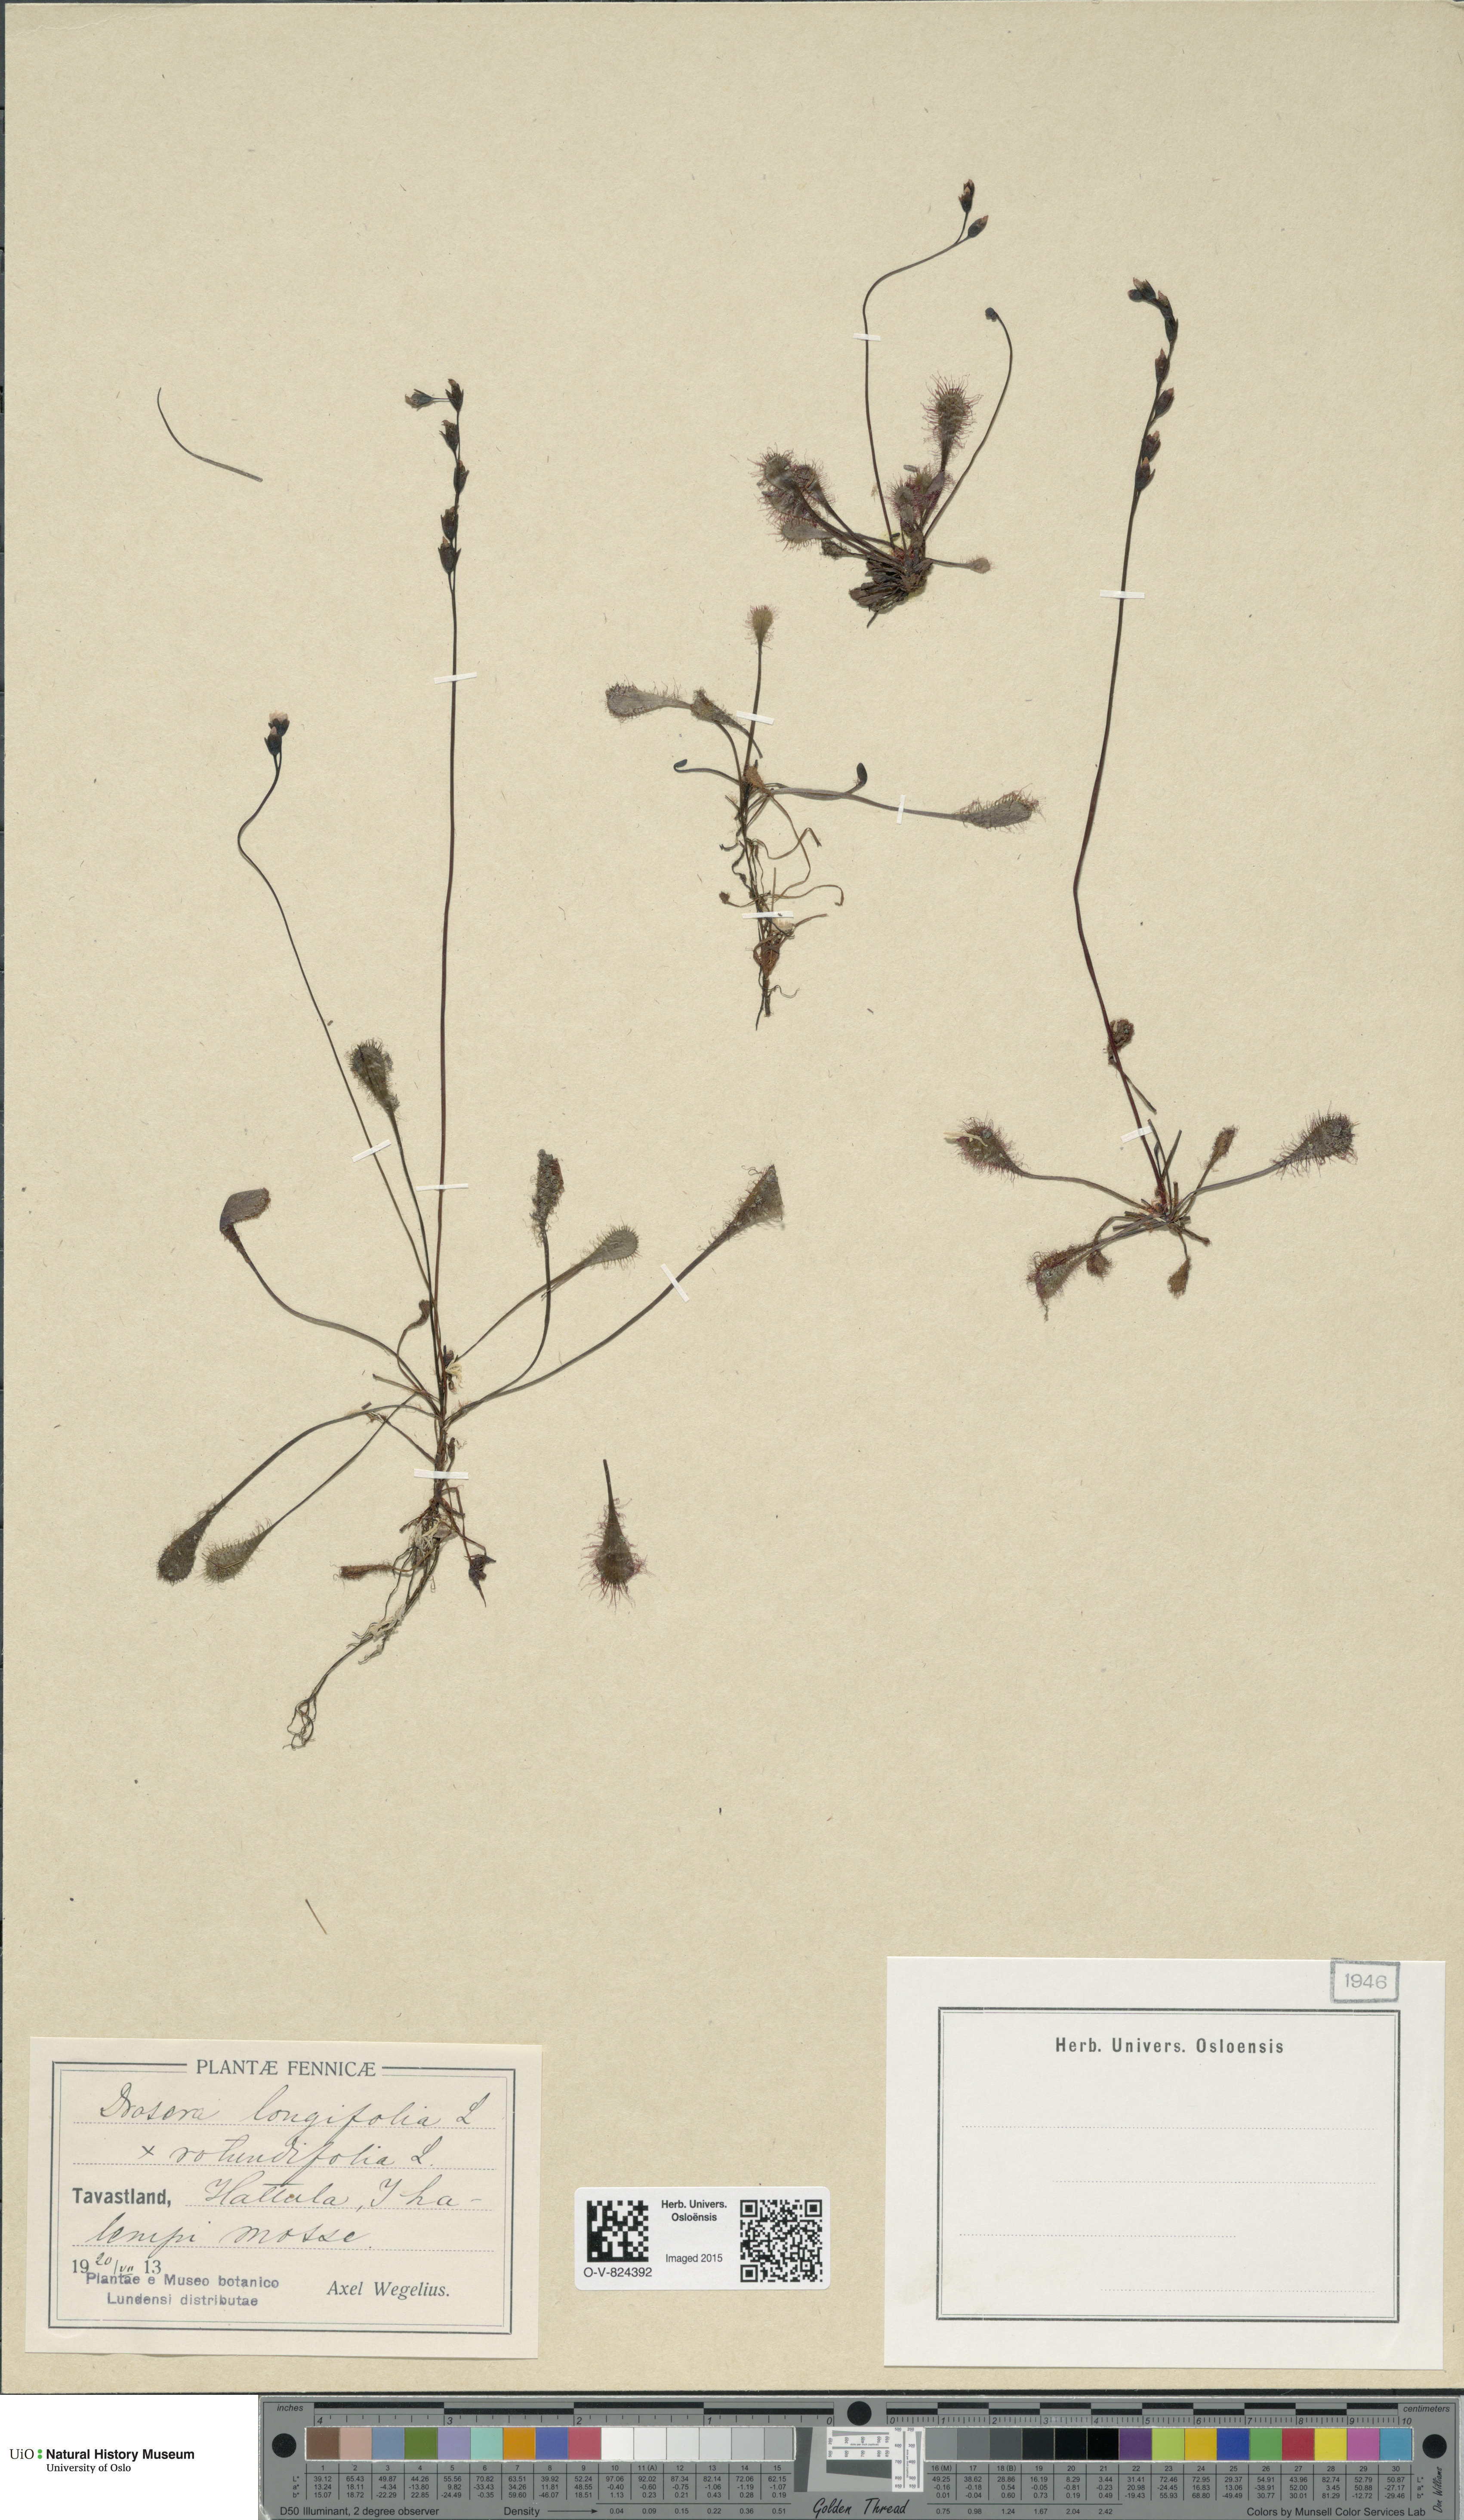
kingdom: Plantae
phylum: Tracheophyta
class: Magnoliopsida
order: Caryophyllales
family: Droseraceae
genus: Drosera
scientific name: Drosera
